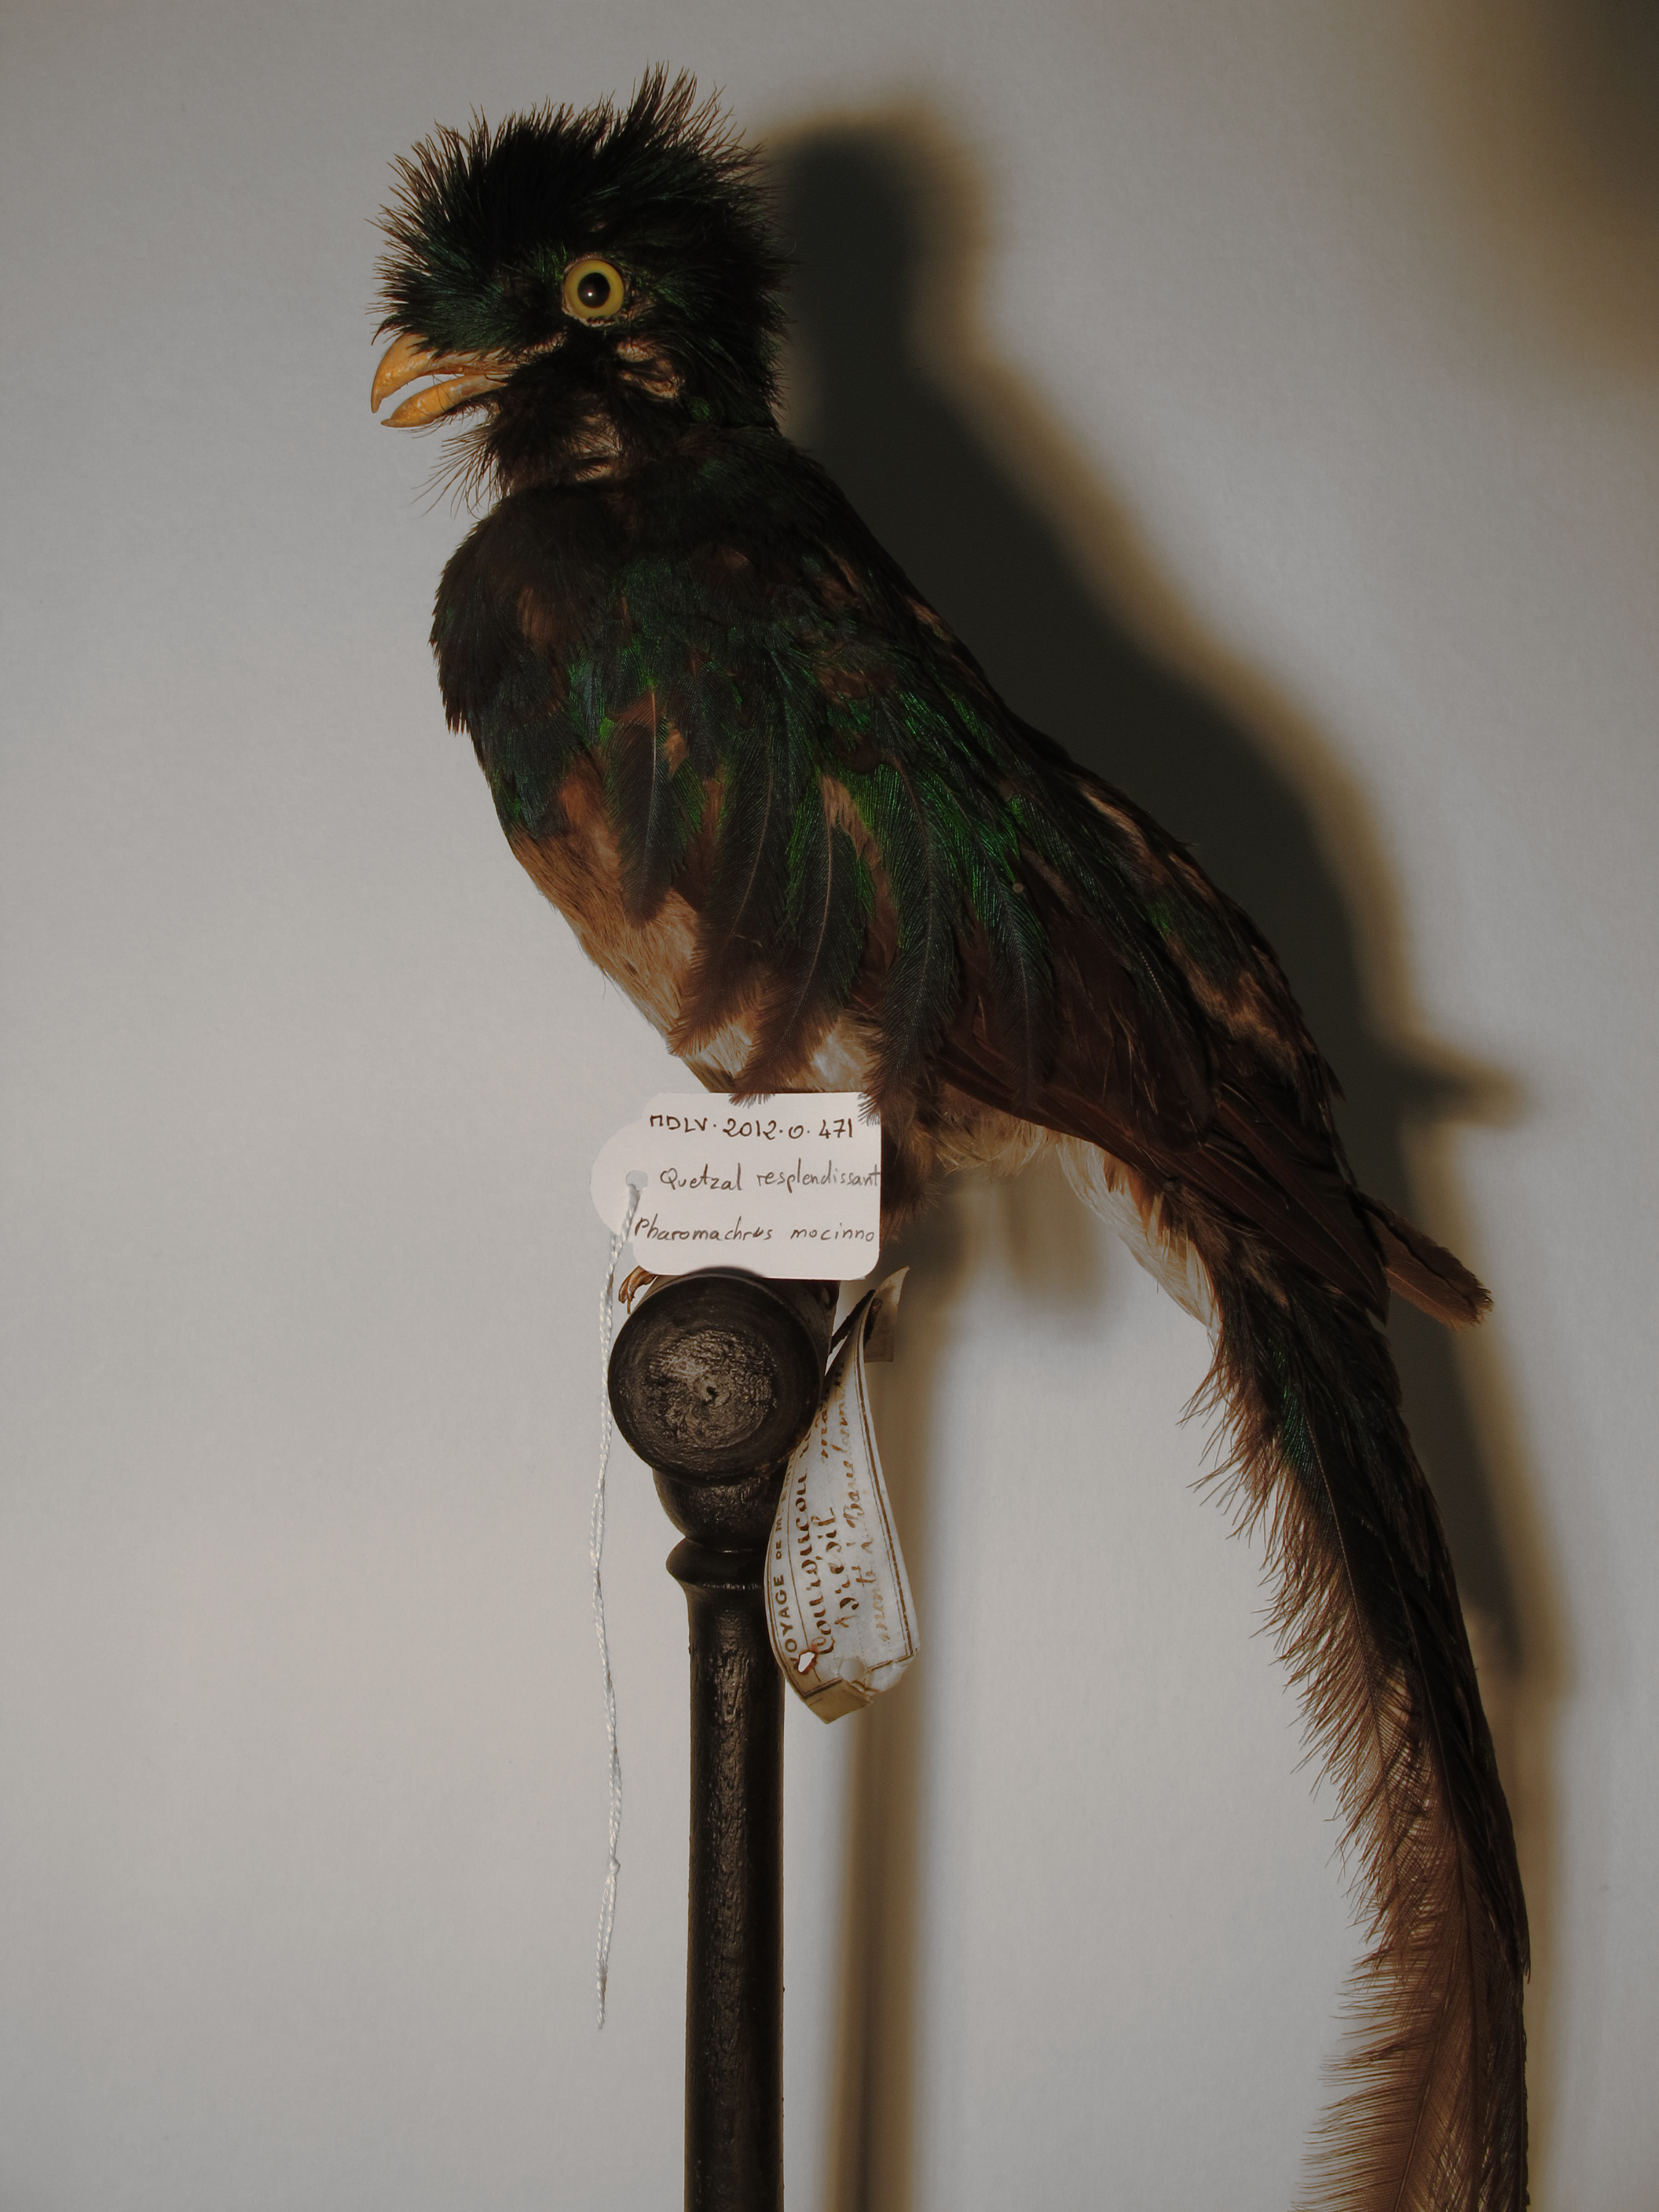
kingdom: Animalia
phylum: Chordata
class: Aves
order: Trogoniformes
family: Trogonidae
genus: Pharomachrus
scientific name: Pharomachrus mocinno
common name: Resplendent Quetzal
